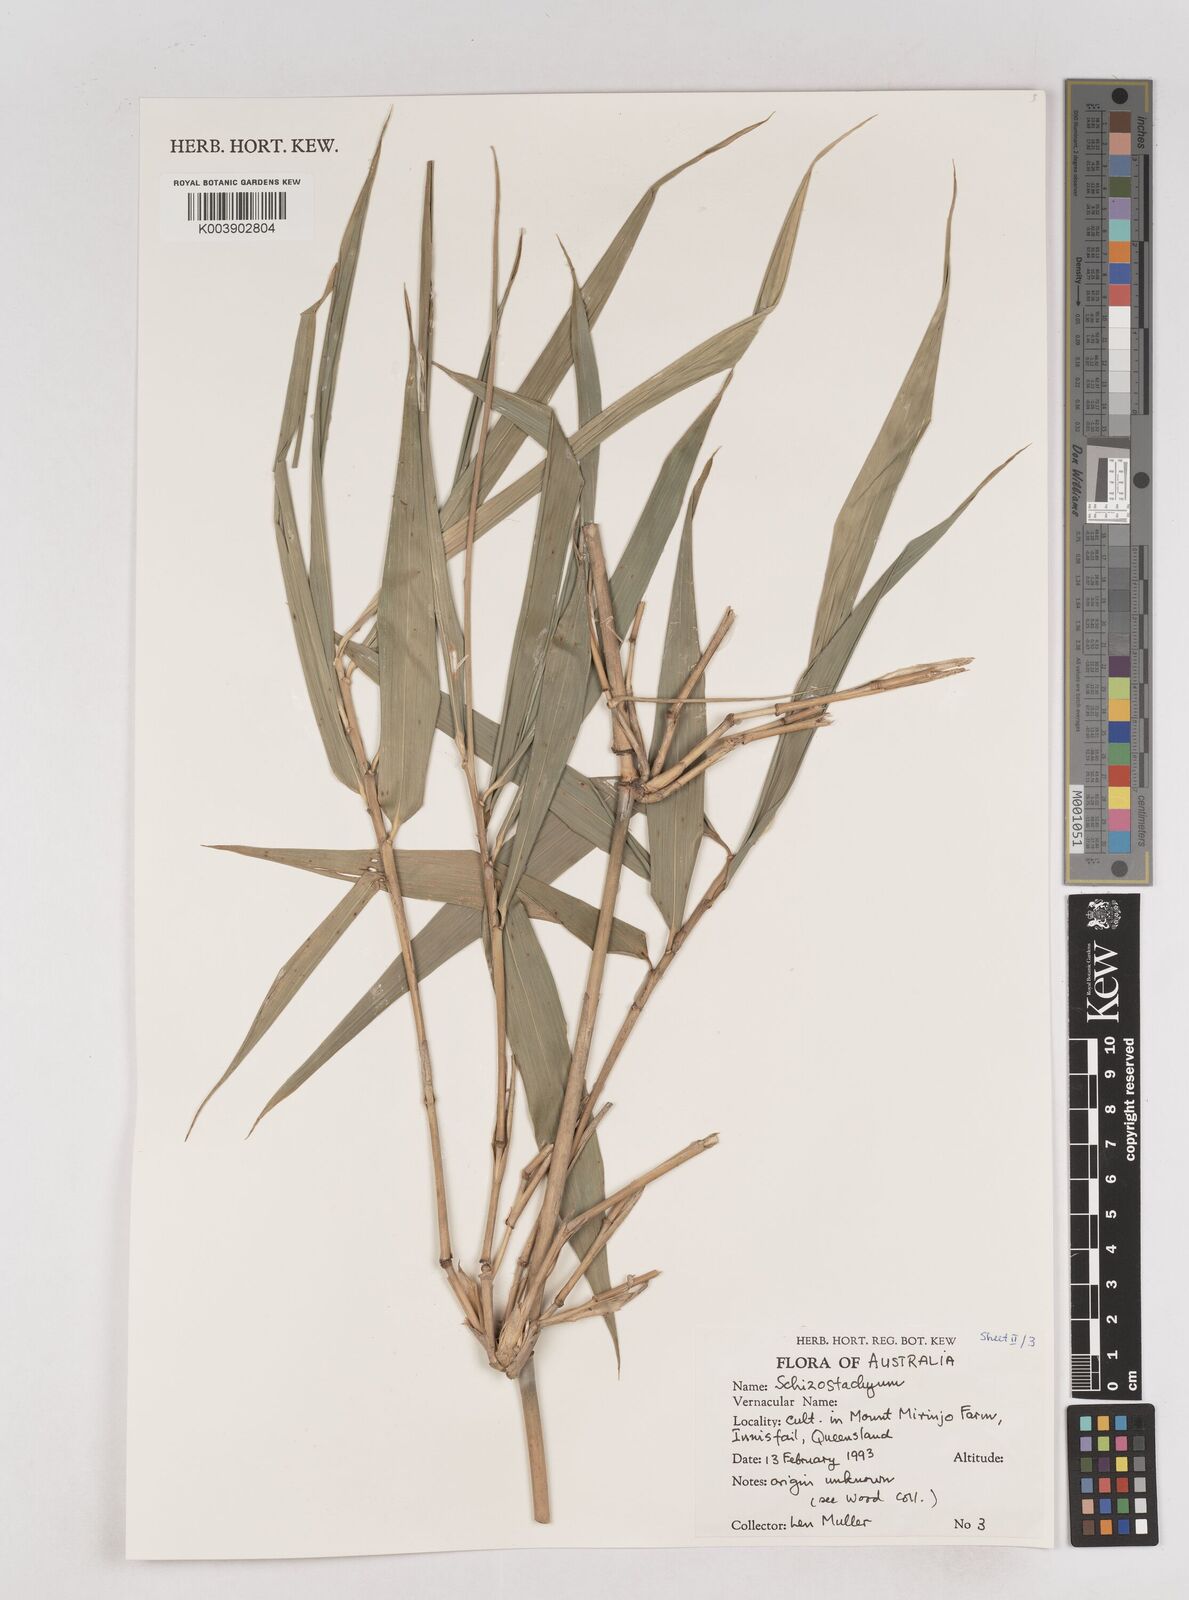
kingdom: Plantae
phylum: Tracheophyta
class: Liliopsida
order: Poales
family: Poaceae
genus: Schizostachyum
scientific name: Schizostachyum
